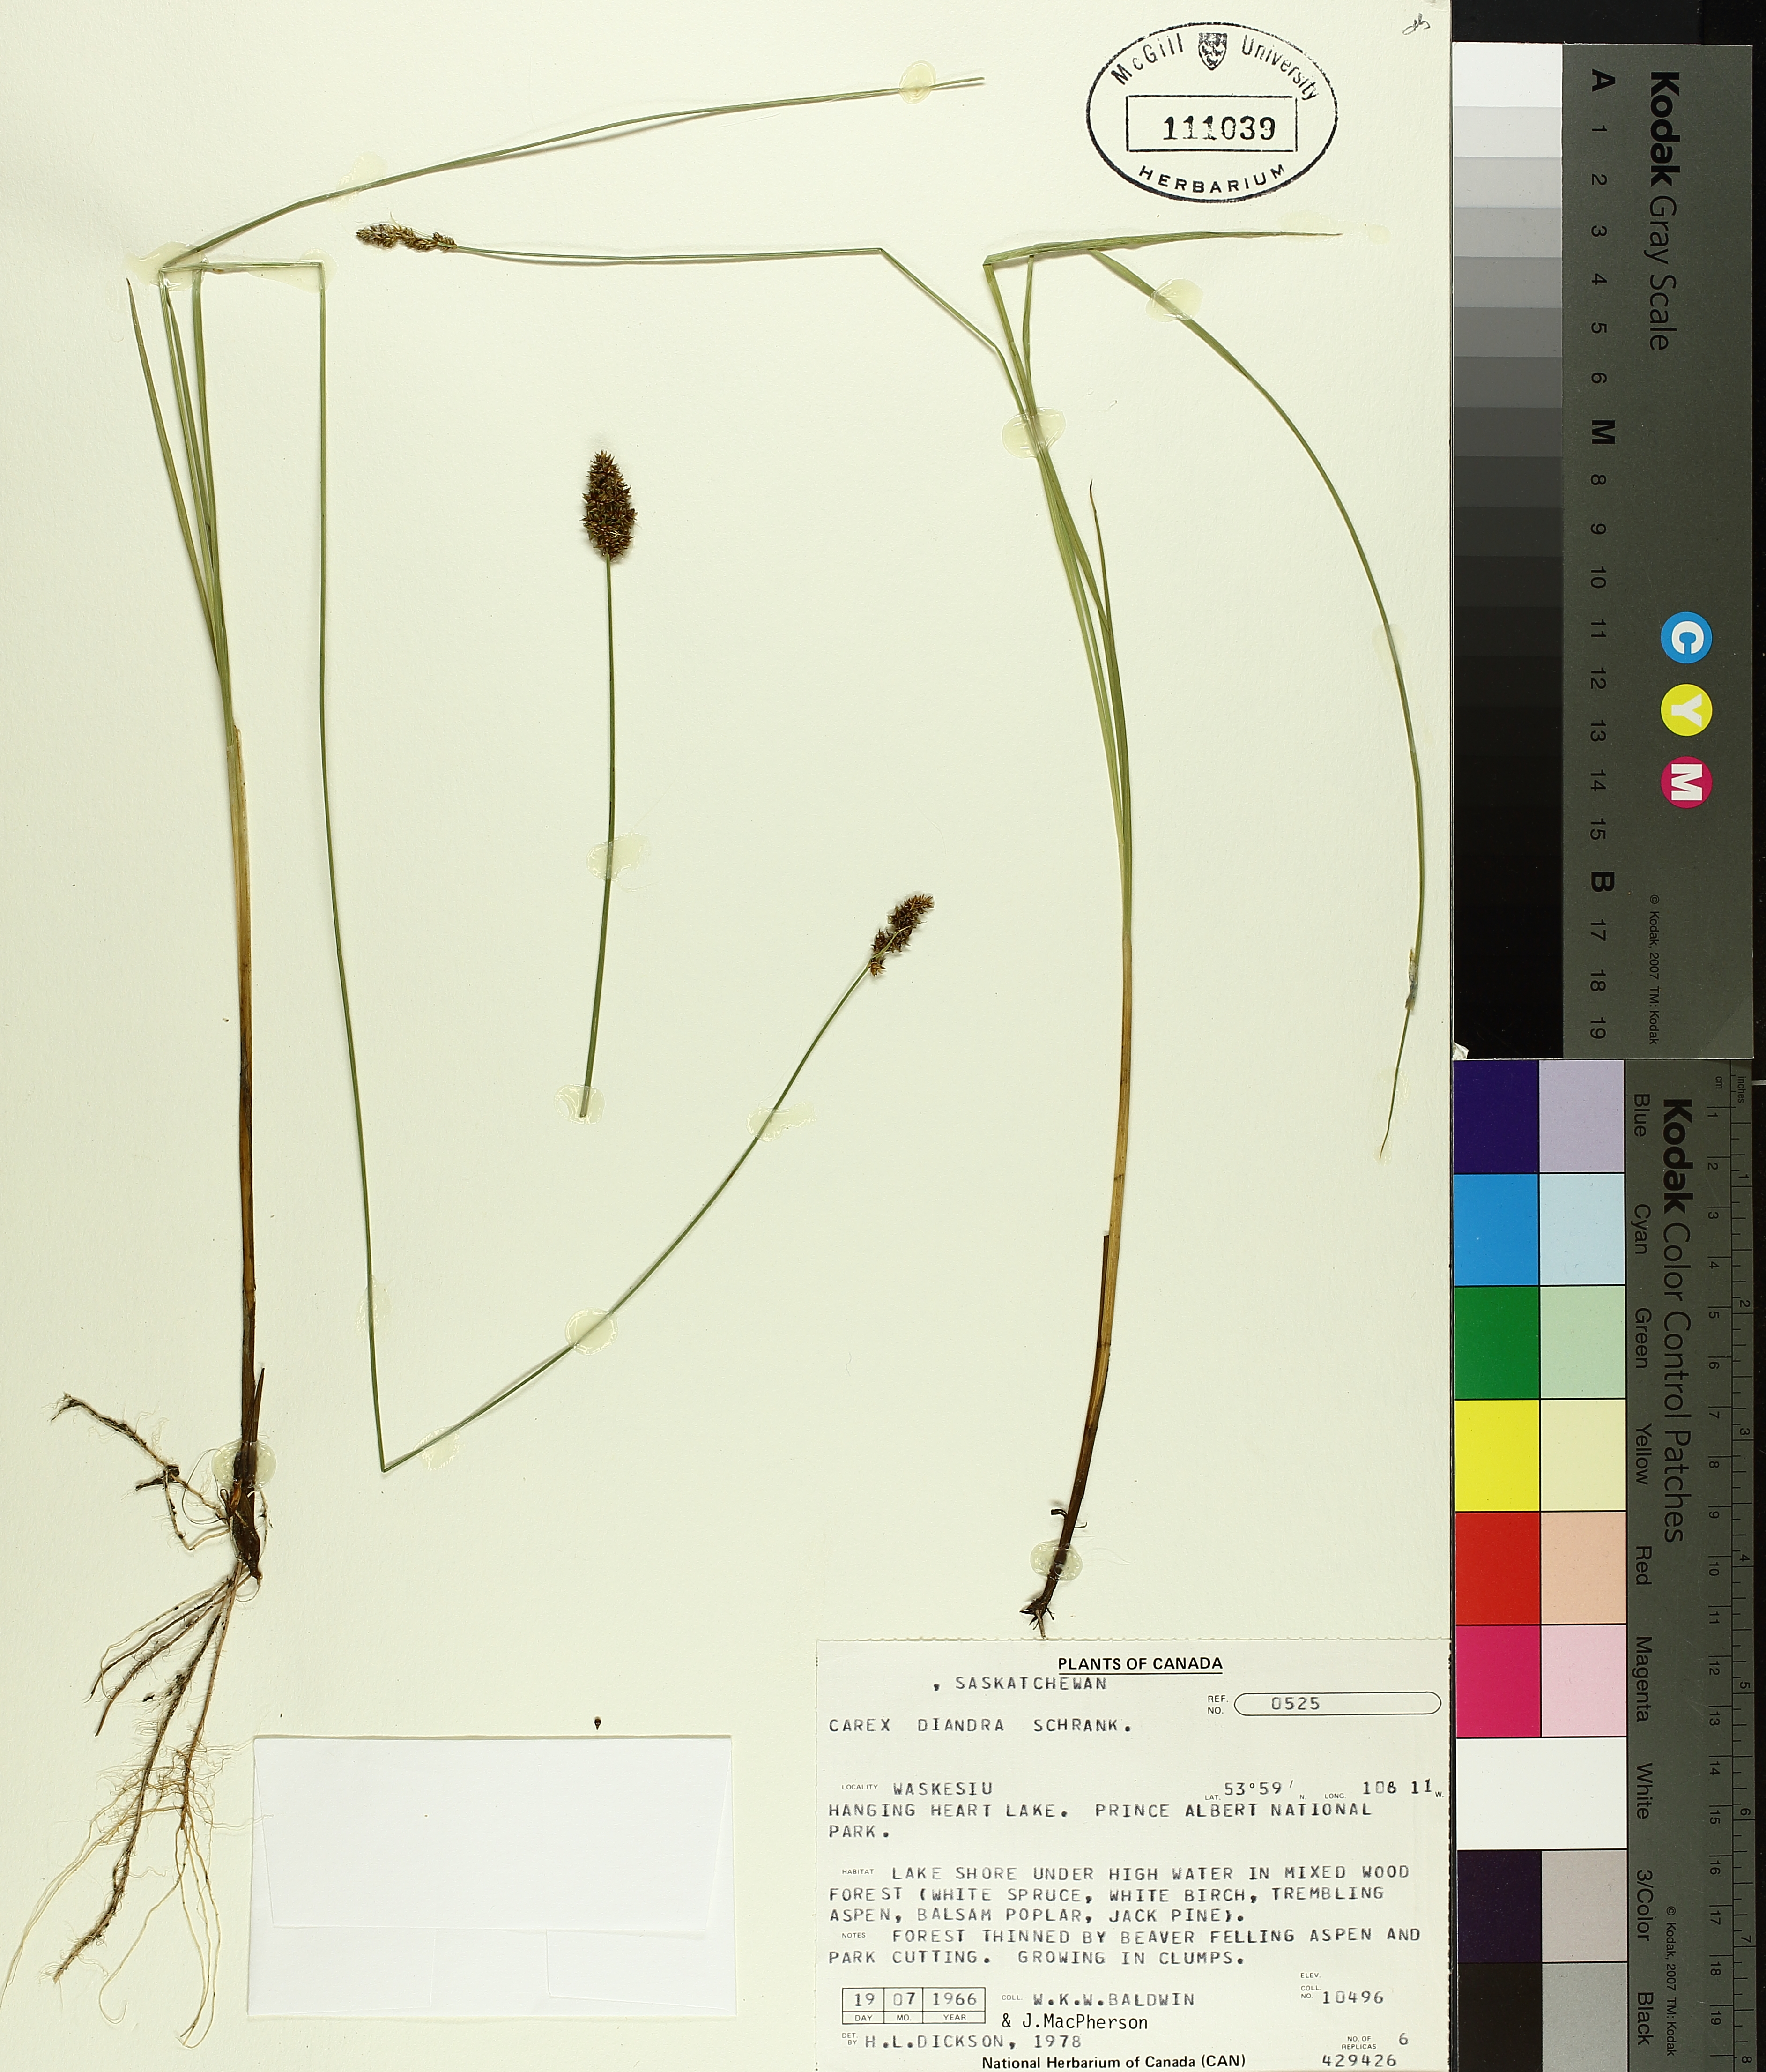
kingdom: Plantae
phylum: Tracheophyta
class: Liliopsida
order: Poales
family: Cyperaceae
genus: Carex
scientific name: Carex diandra
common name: Lesser tussock-sedge
